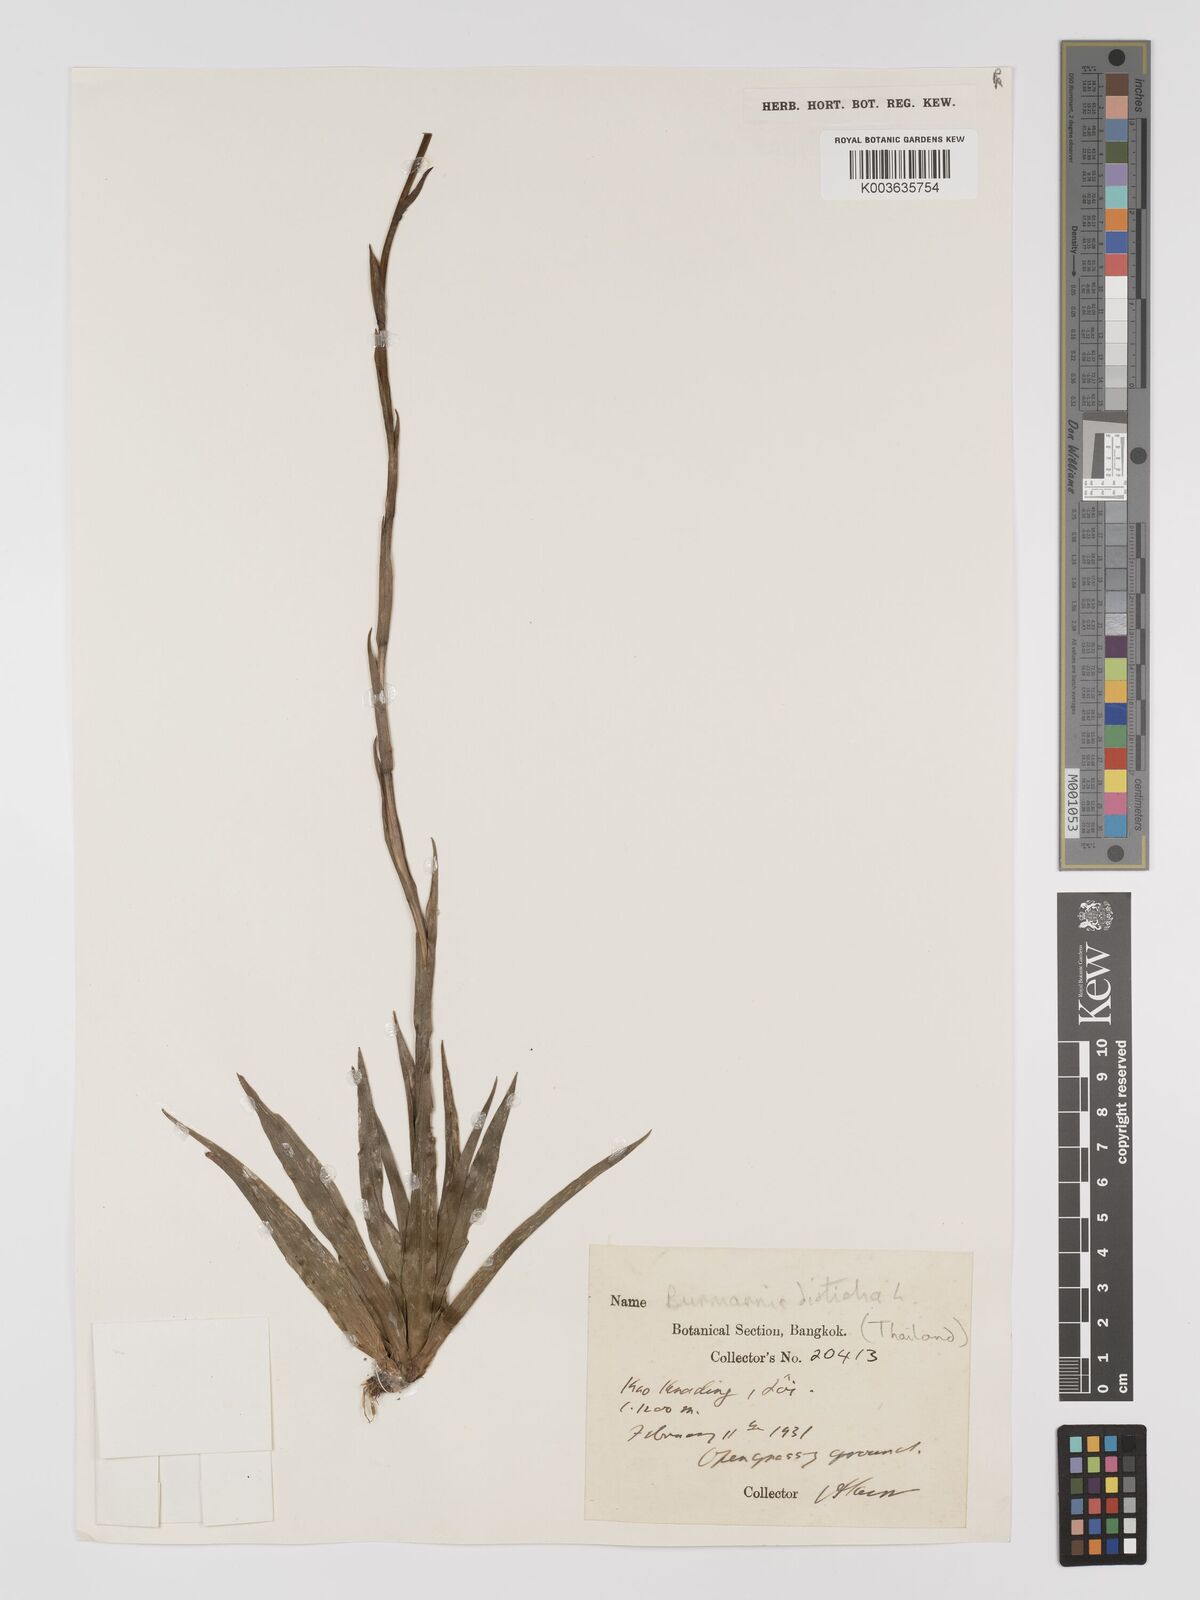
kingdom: Plantae
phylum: Tracheophyta
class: Liliopsida
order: Dioscoreales
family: Burmanniaceae
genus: Burmannia
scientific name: Burmannia disticha
